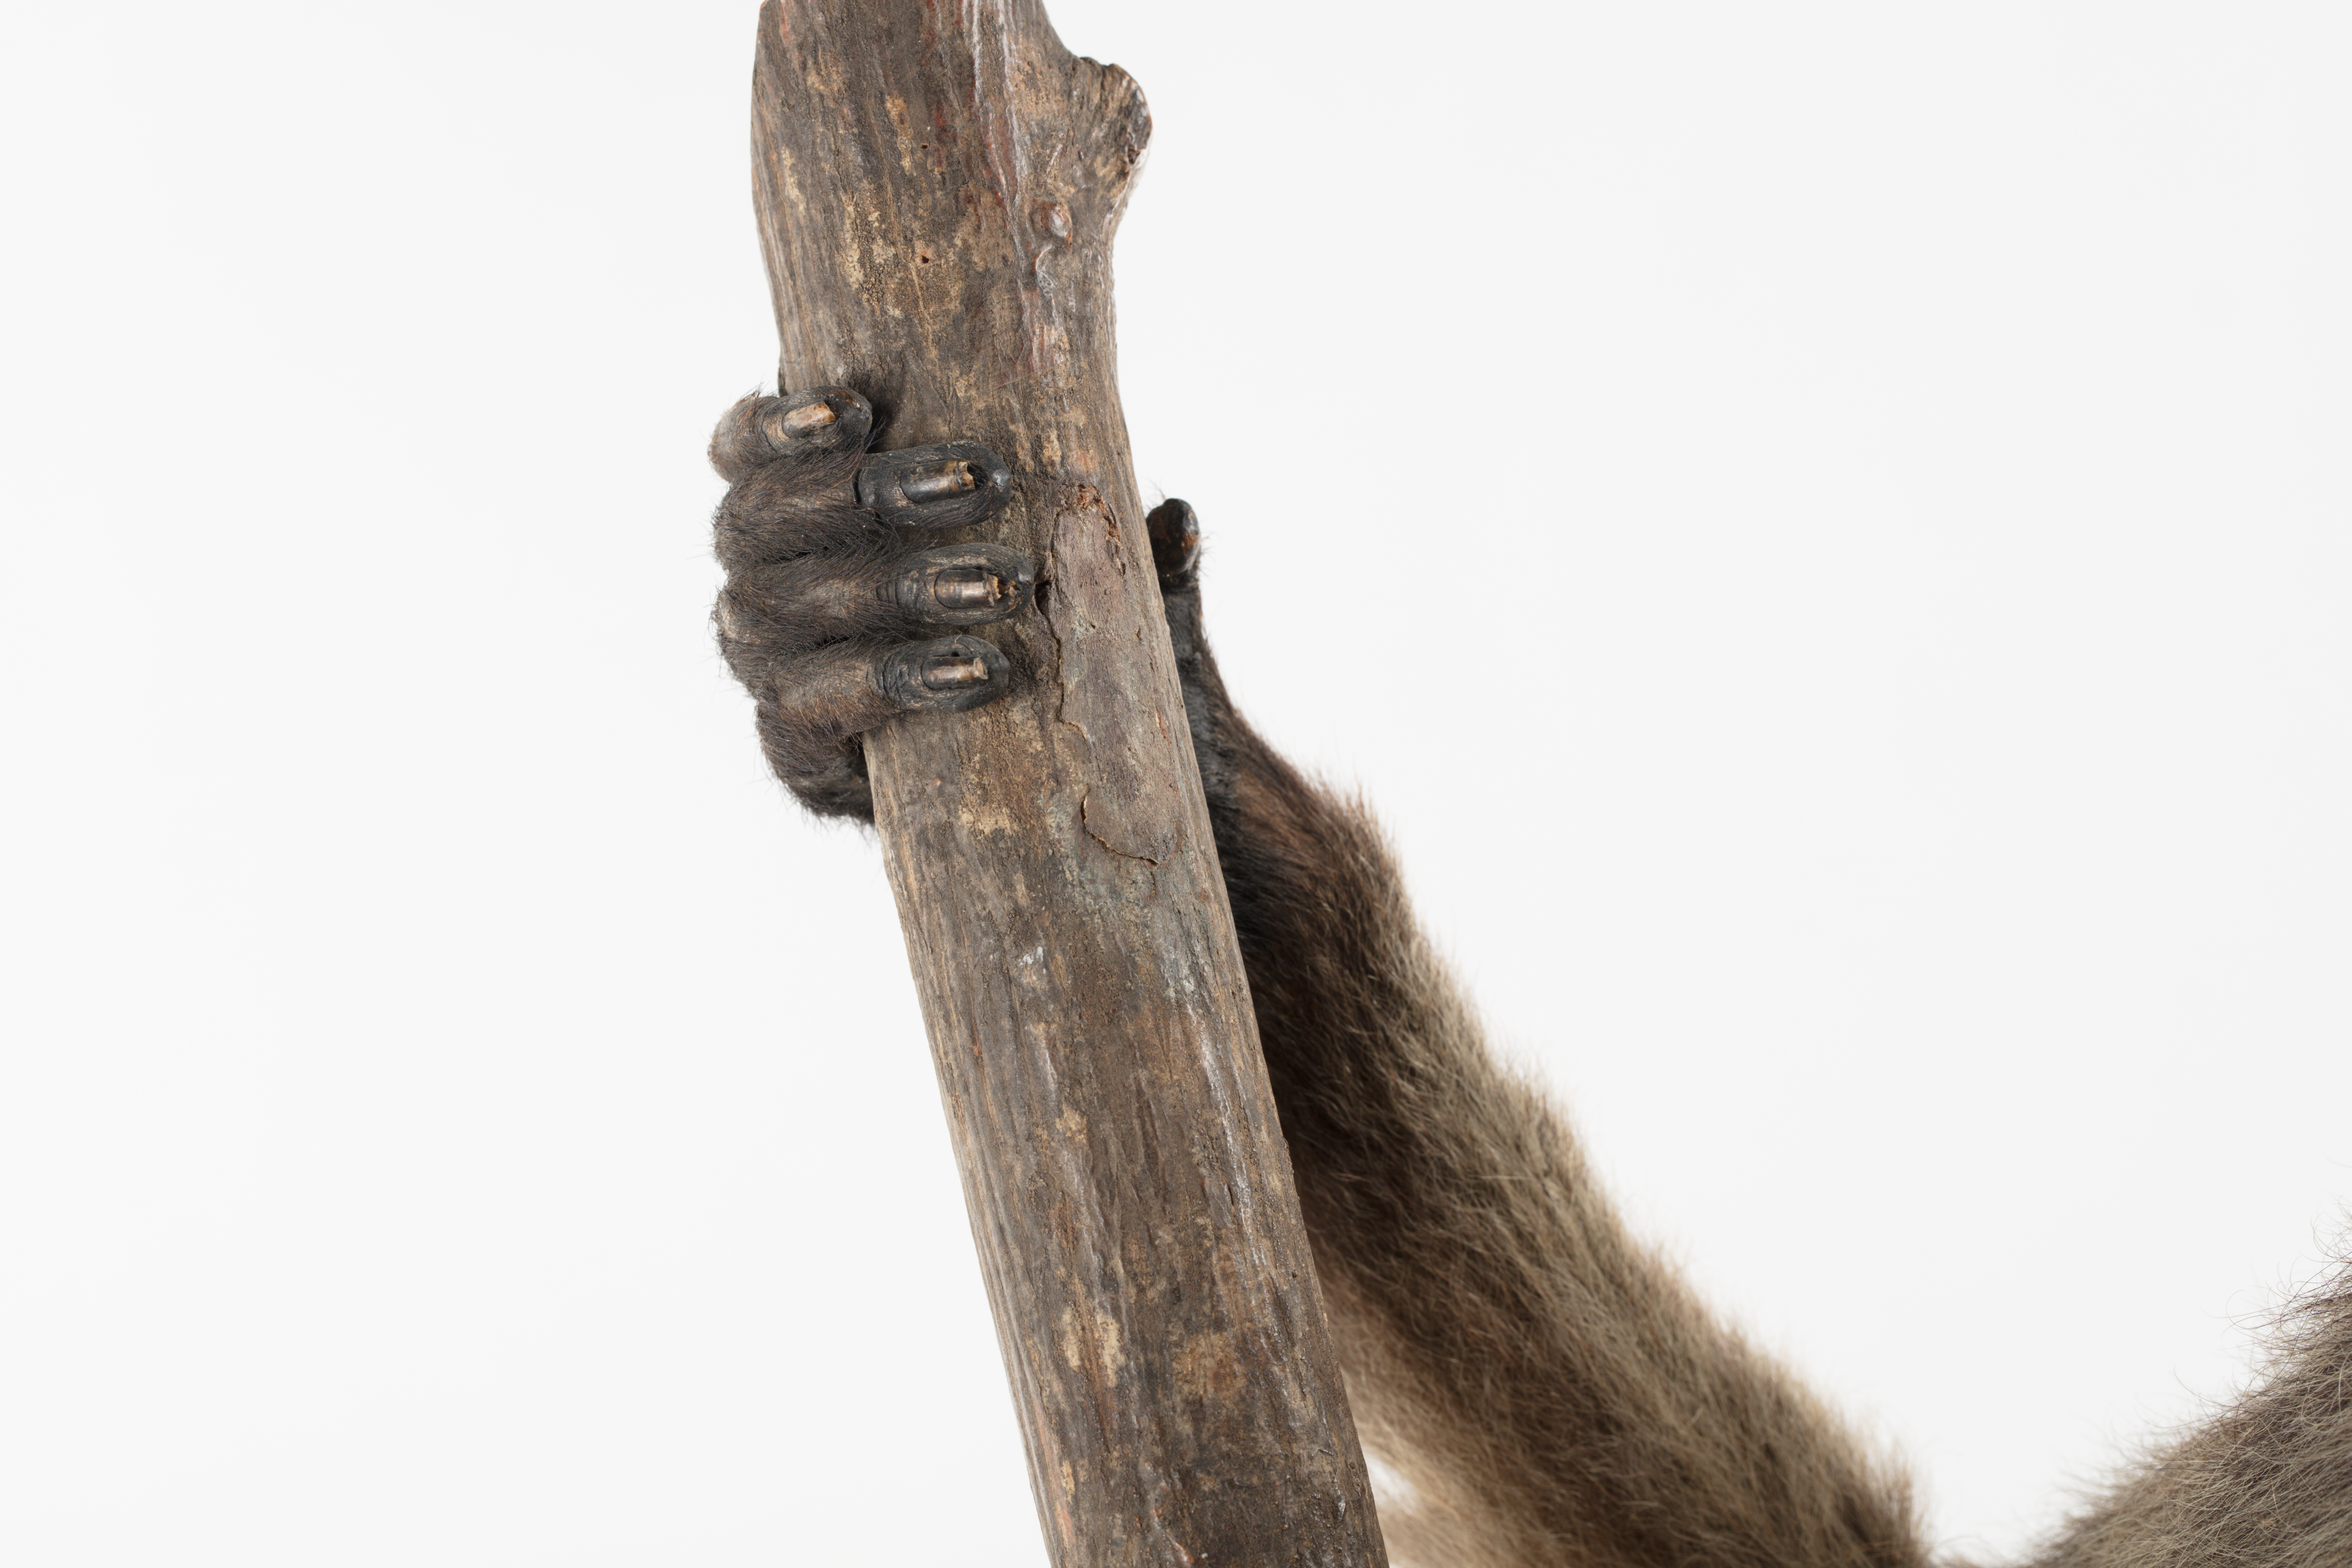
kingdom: Animalia
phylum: Chordata
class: Mammalia
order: Primates
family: Pitheciidae
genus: Pithecia
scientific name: Pithecia monachus
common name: Monk saki
